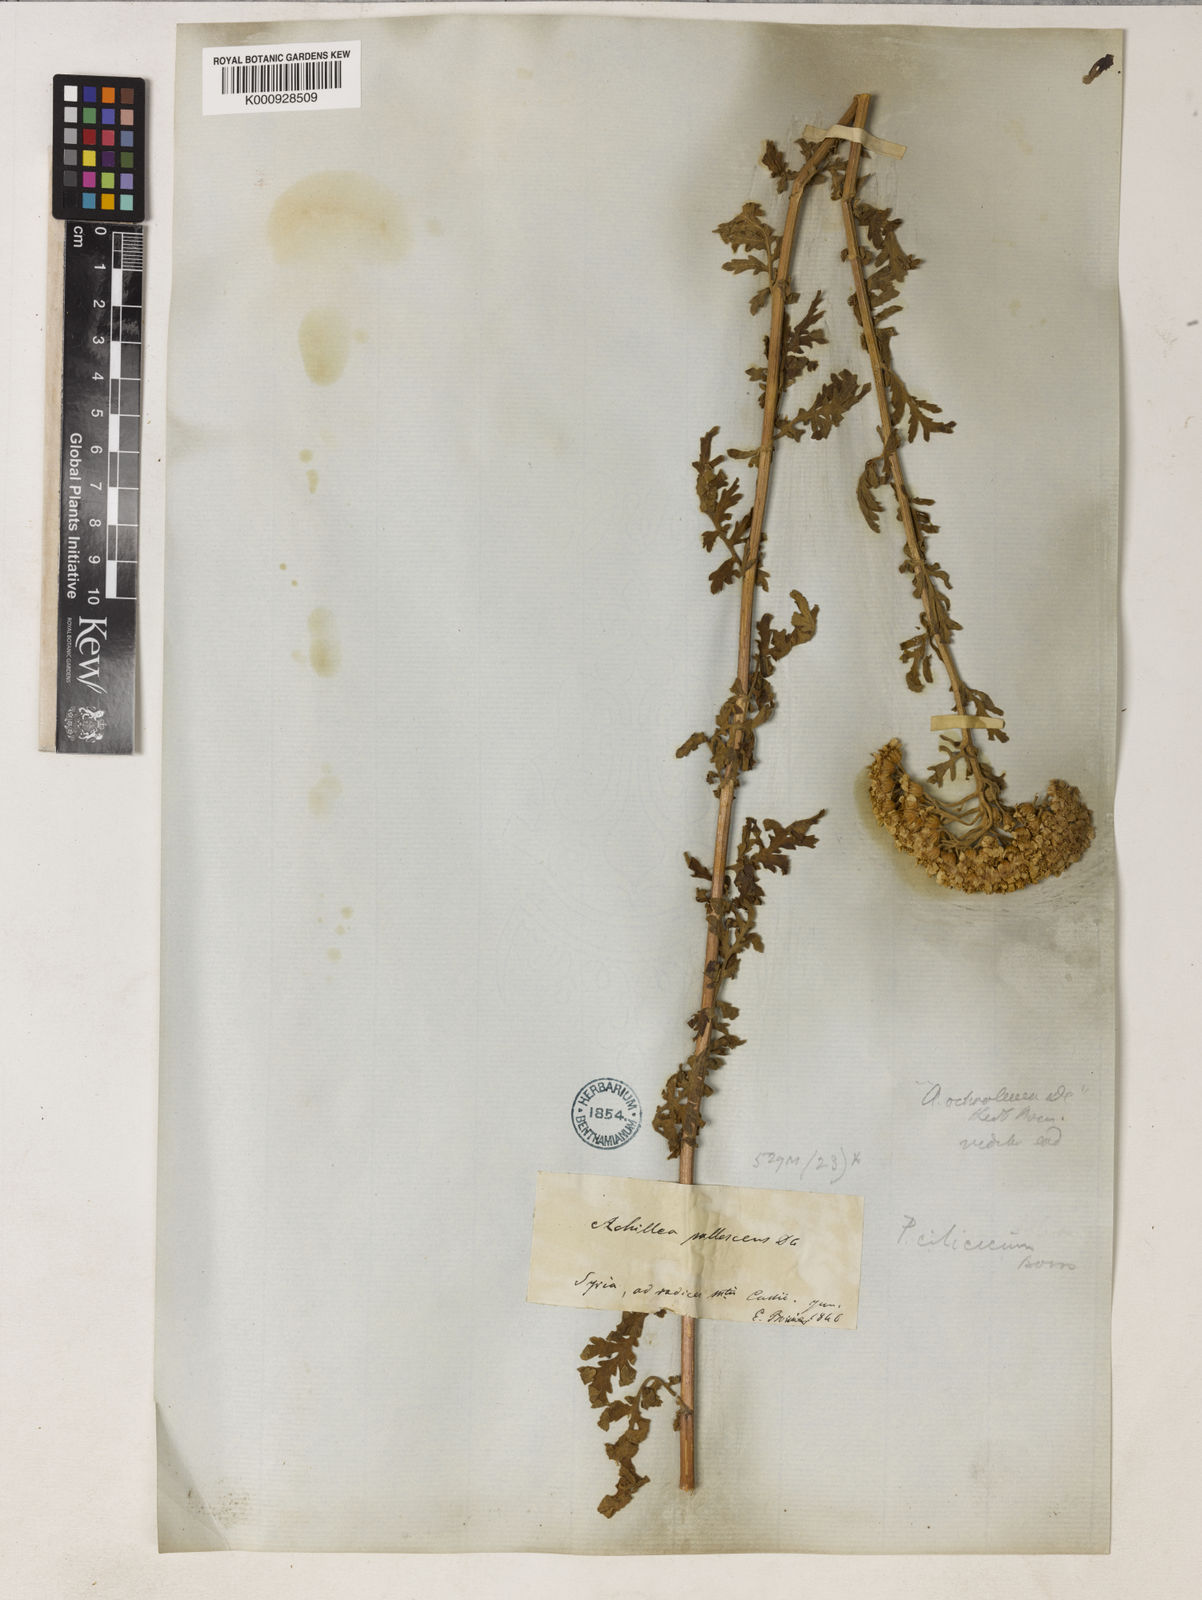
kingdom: Plantae
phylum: Tracheophyta
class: Magnoliopsida
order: Asterales
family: Asteraceae
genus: Tanacetum
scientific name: Tanacetum cilicicum
